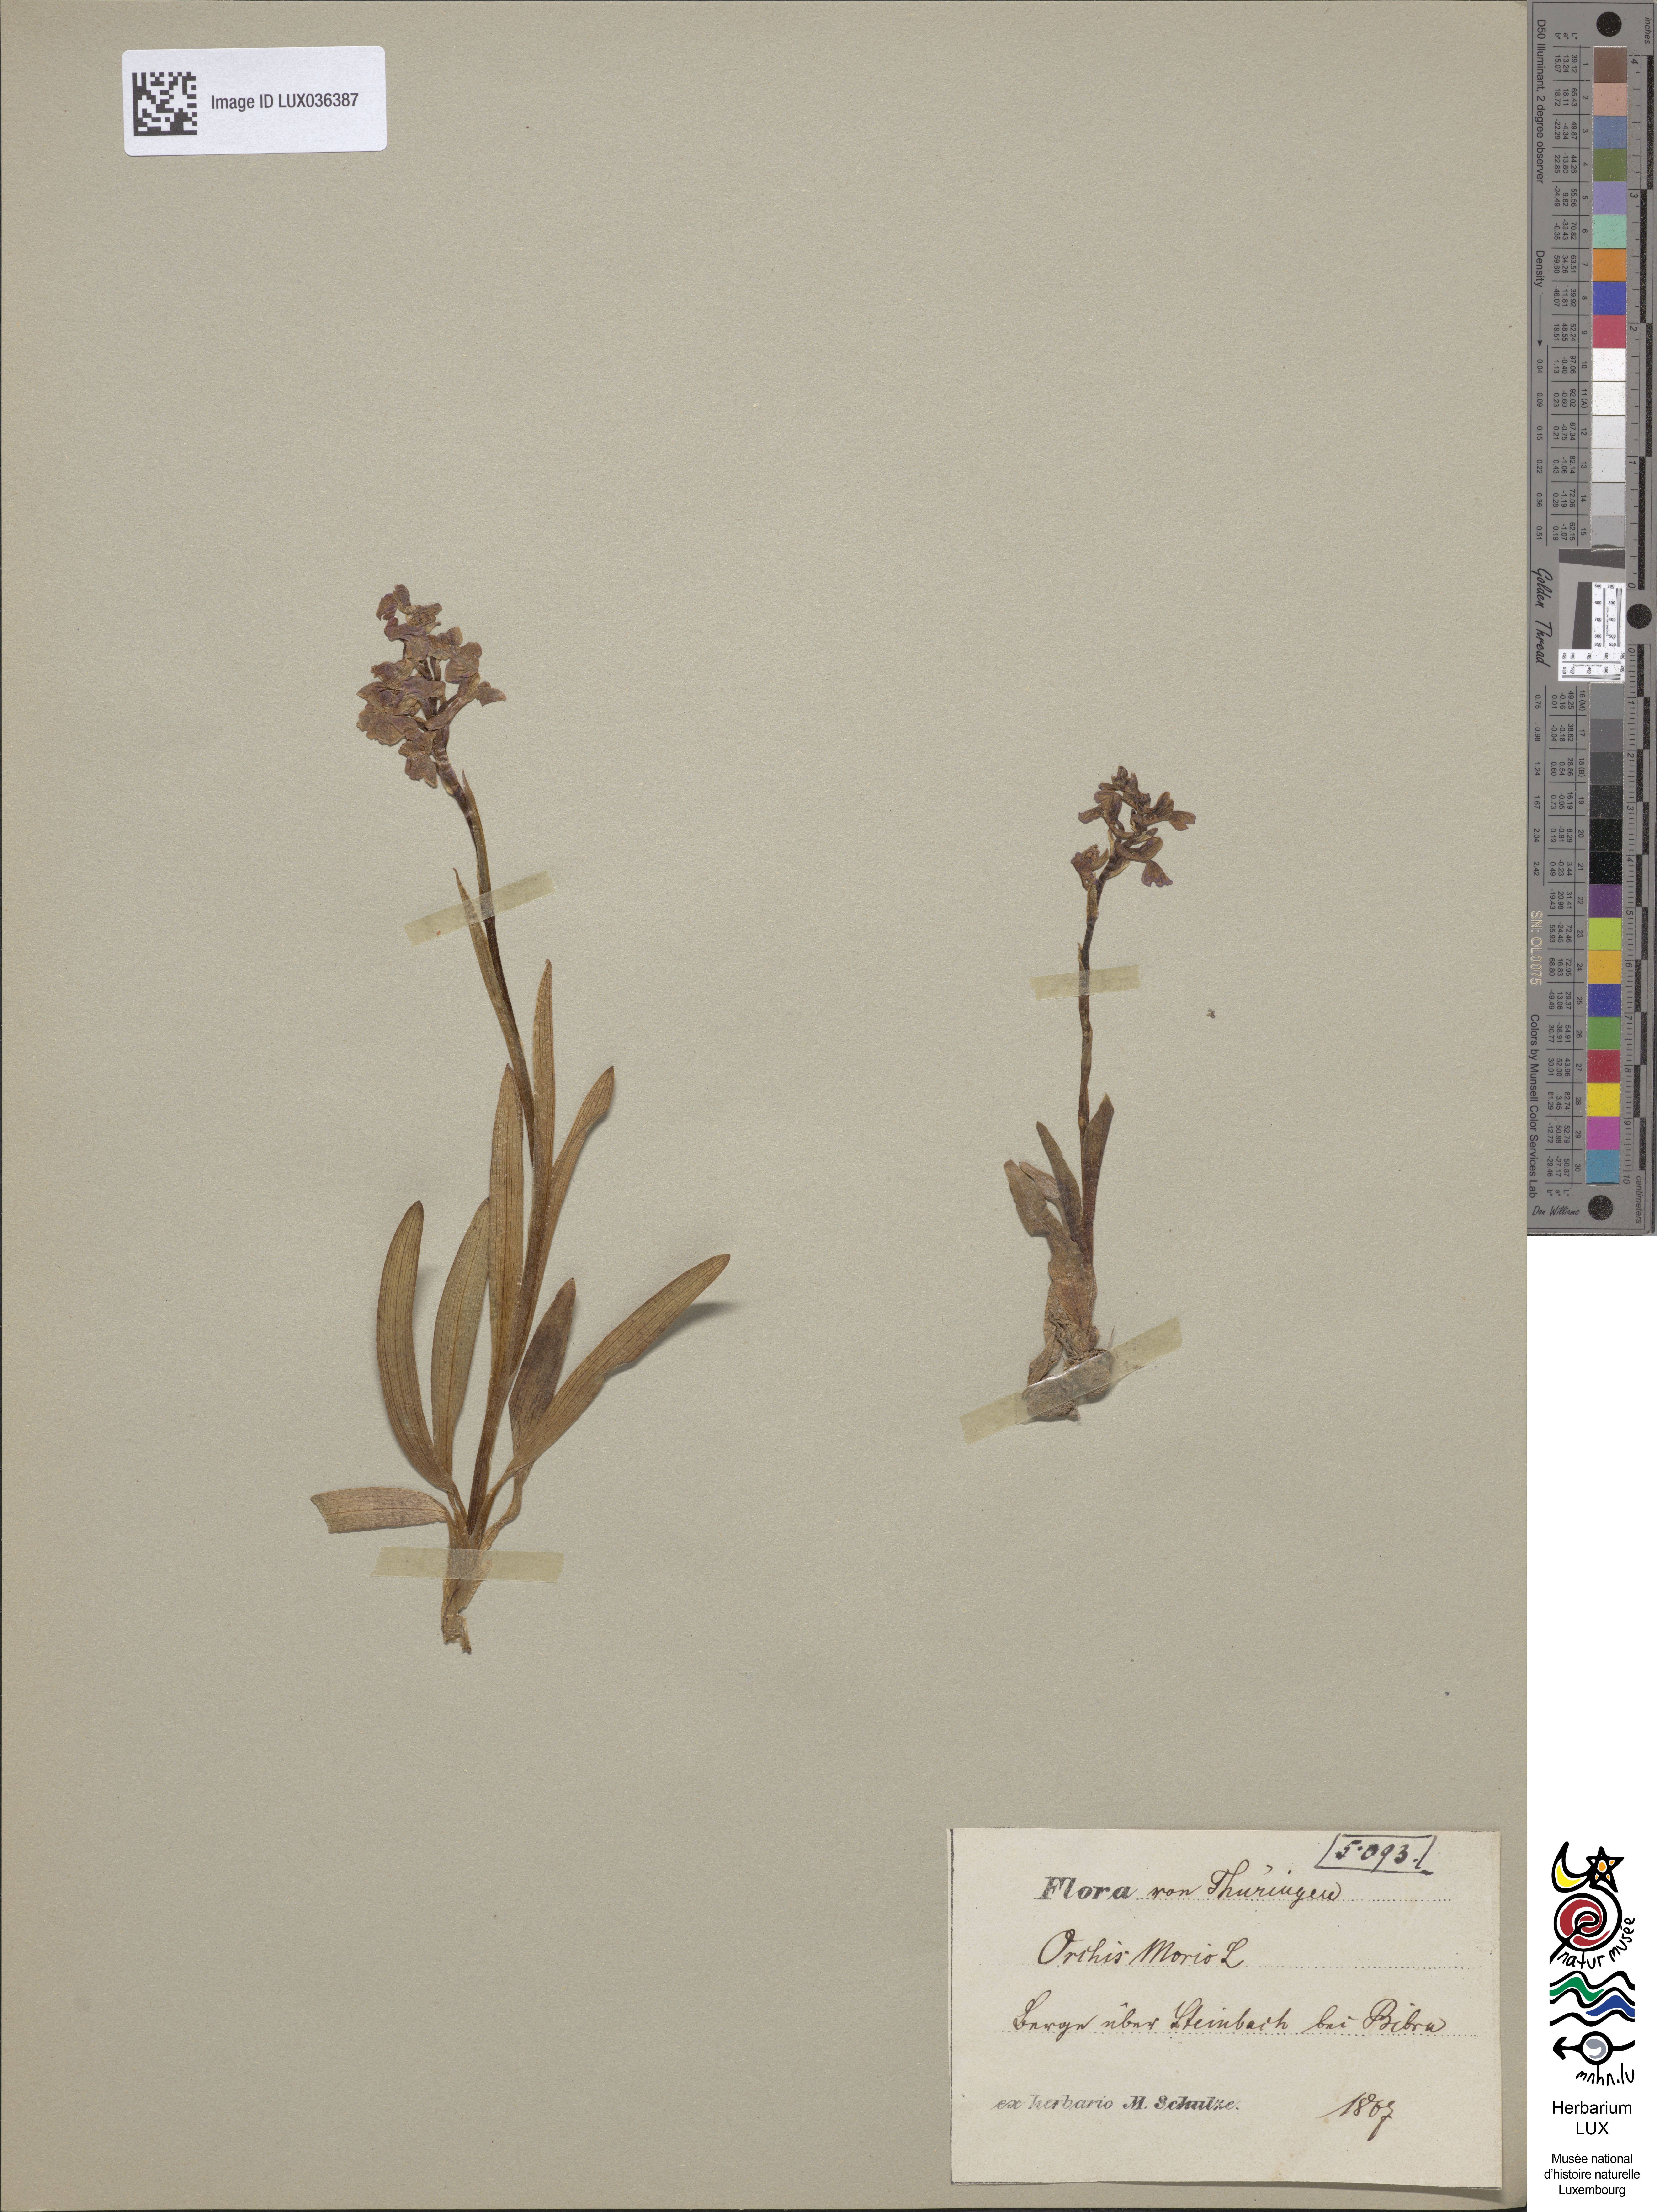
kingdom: Plantae
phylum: Tracheophyta
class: Liliopsida
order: Asparagales
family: Orchidaceae
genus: Anacamptis
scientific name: Anacamptis morio
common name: Green-winged orchid
